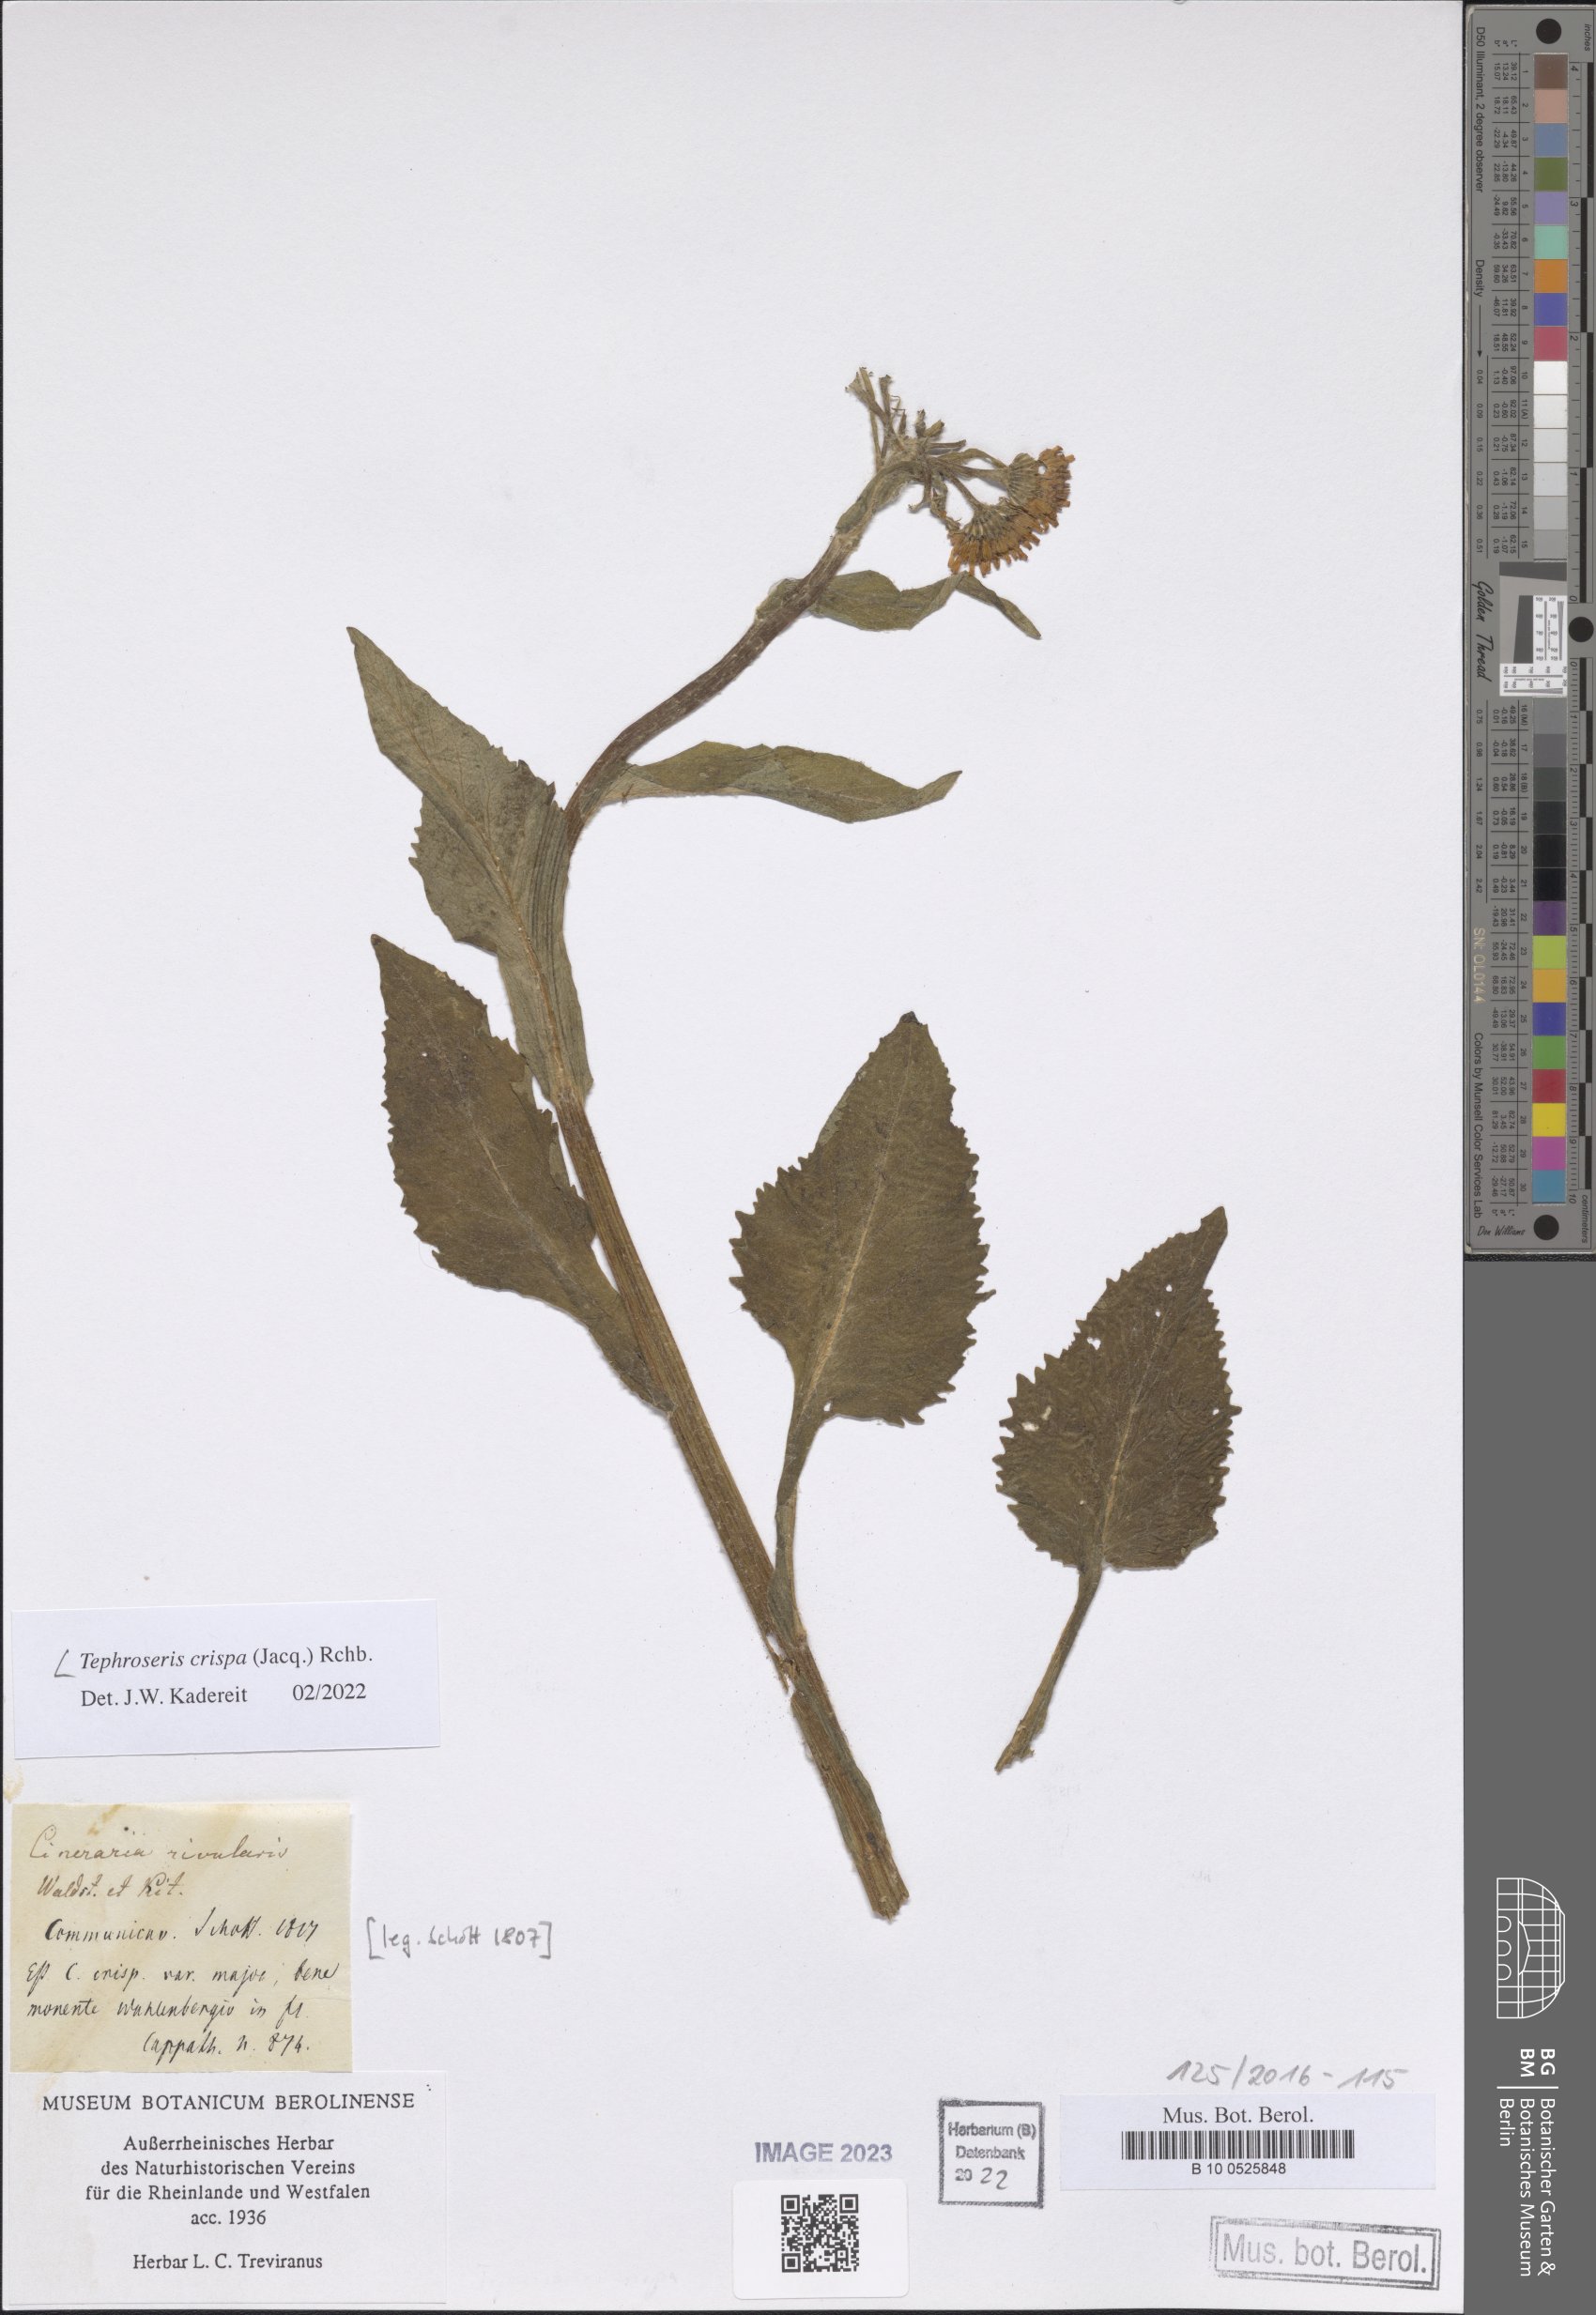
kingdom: Plantae
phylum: Tracheophyta
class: Magnoliopsida
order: Asterales
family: Asteraceae
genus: Tephroseris
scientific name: Tephroseris crispa
